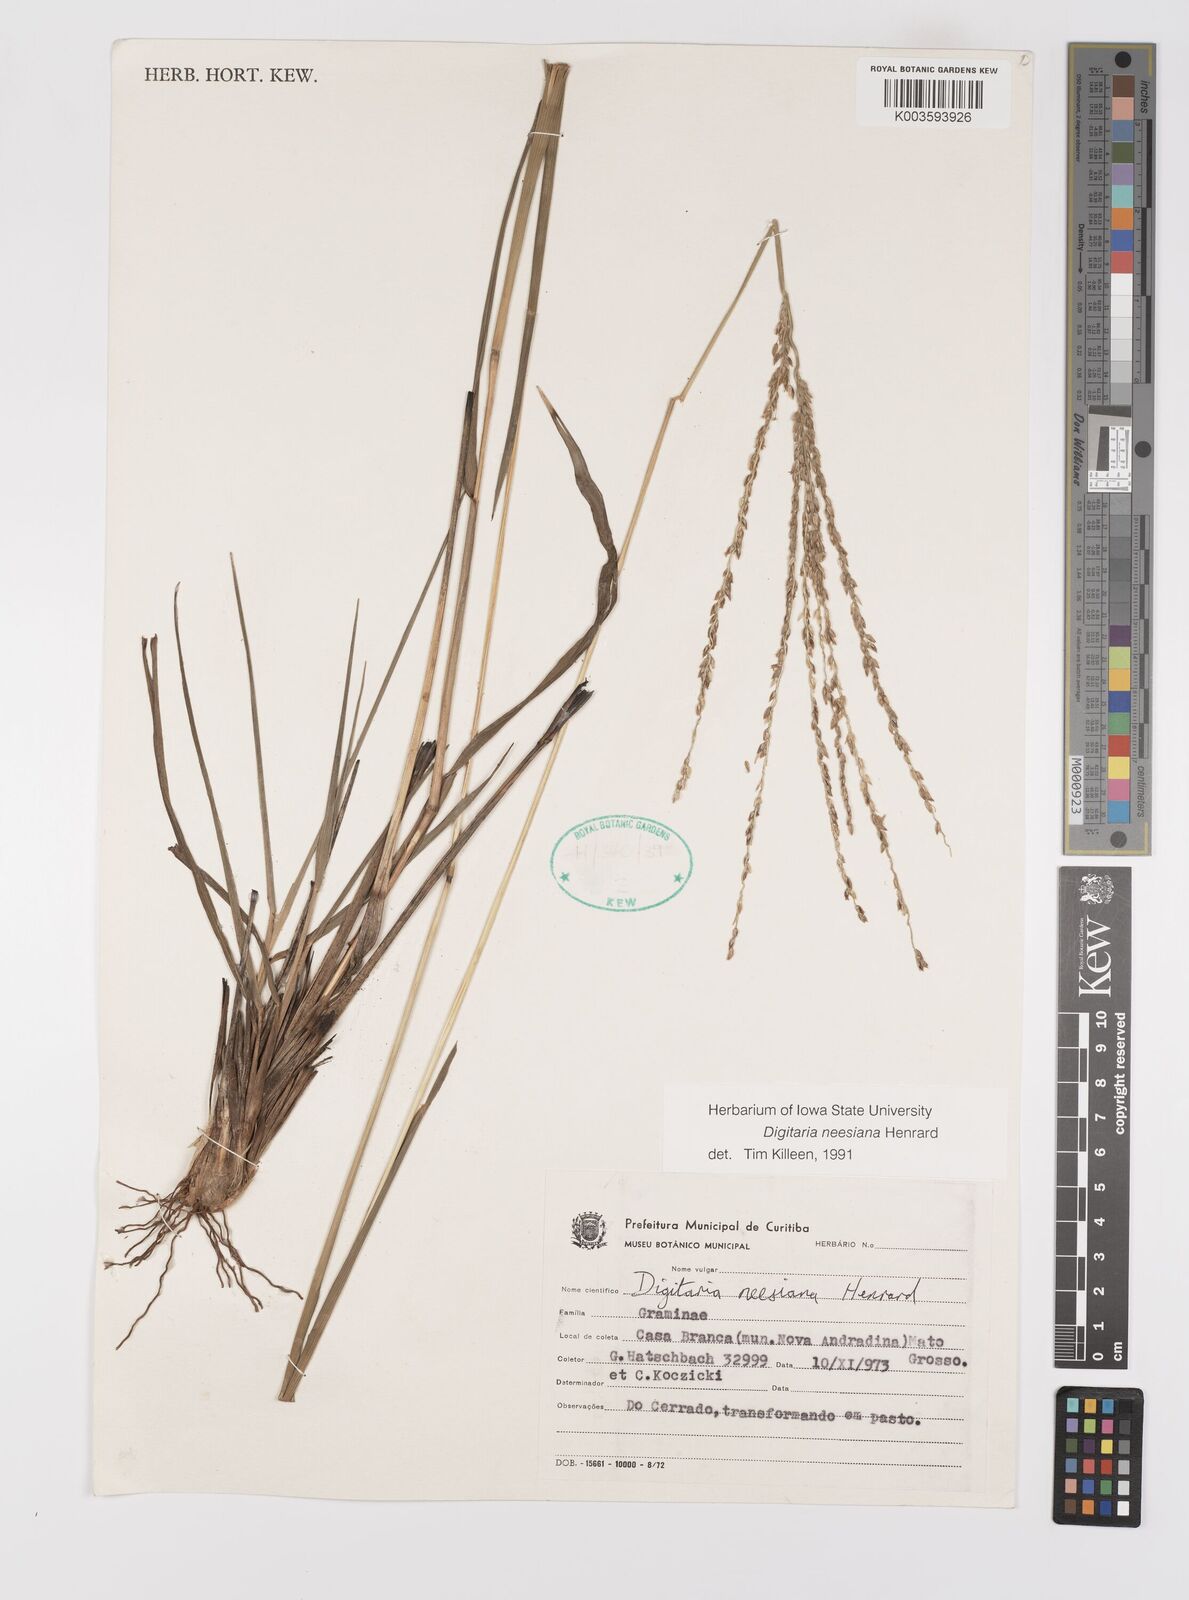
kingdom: Plantae
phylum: Tracheophyta
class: Liliopsida
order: Poales
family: Poaceae
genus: Digitaria
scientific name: Digitaria neesiana
